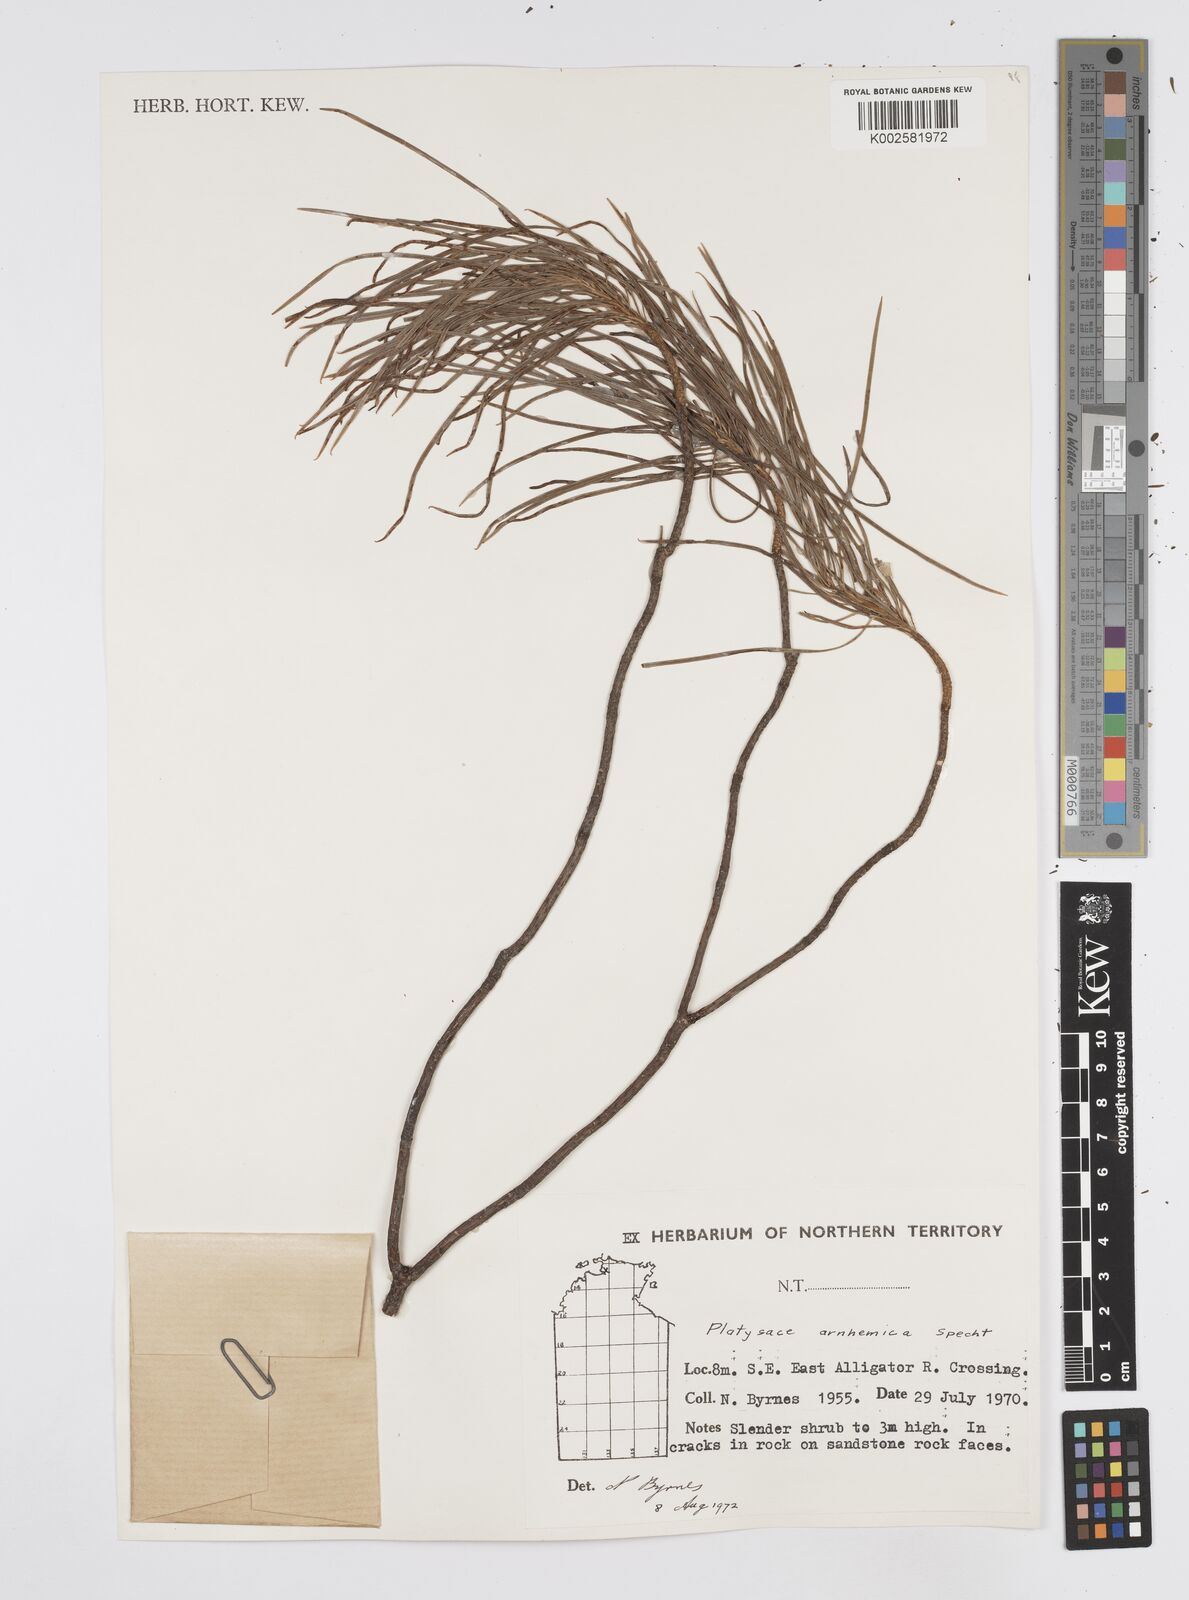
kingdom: Plantae
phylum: Tracheophyta
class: Magnoliopsida
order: Apiales
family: Apiaceae
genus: Platysace
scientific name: Platysace arnhemica
